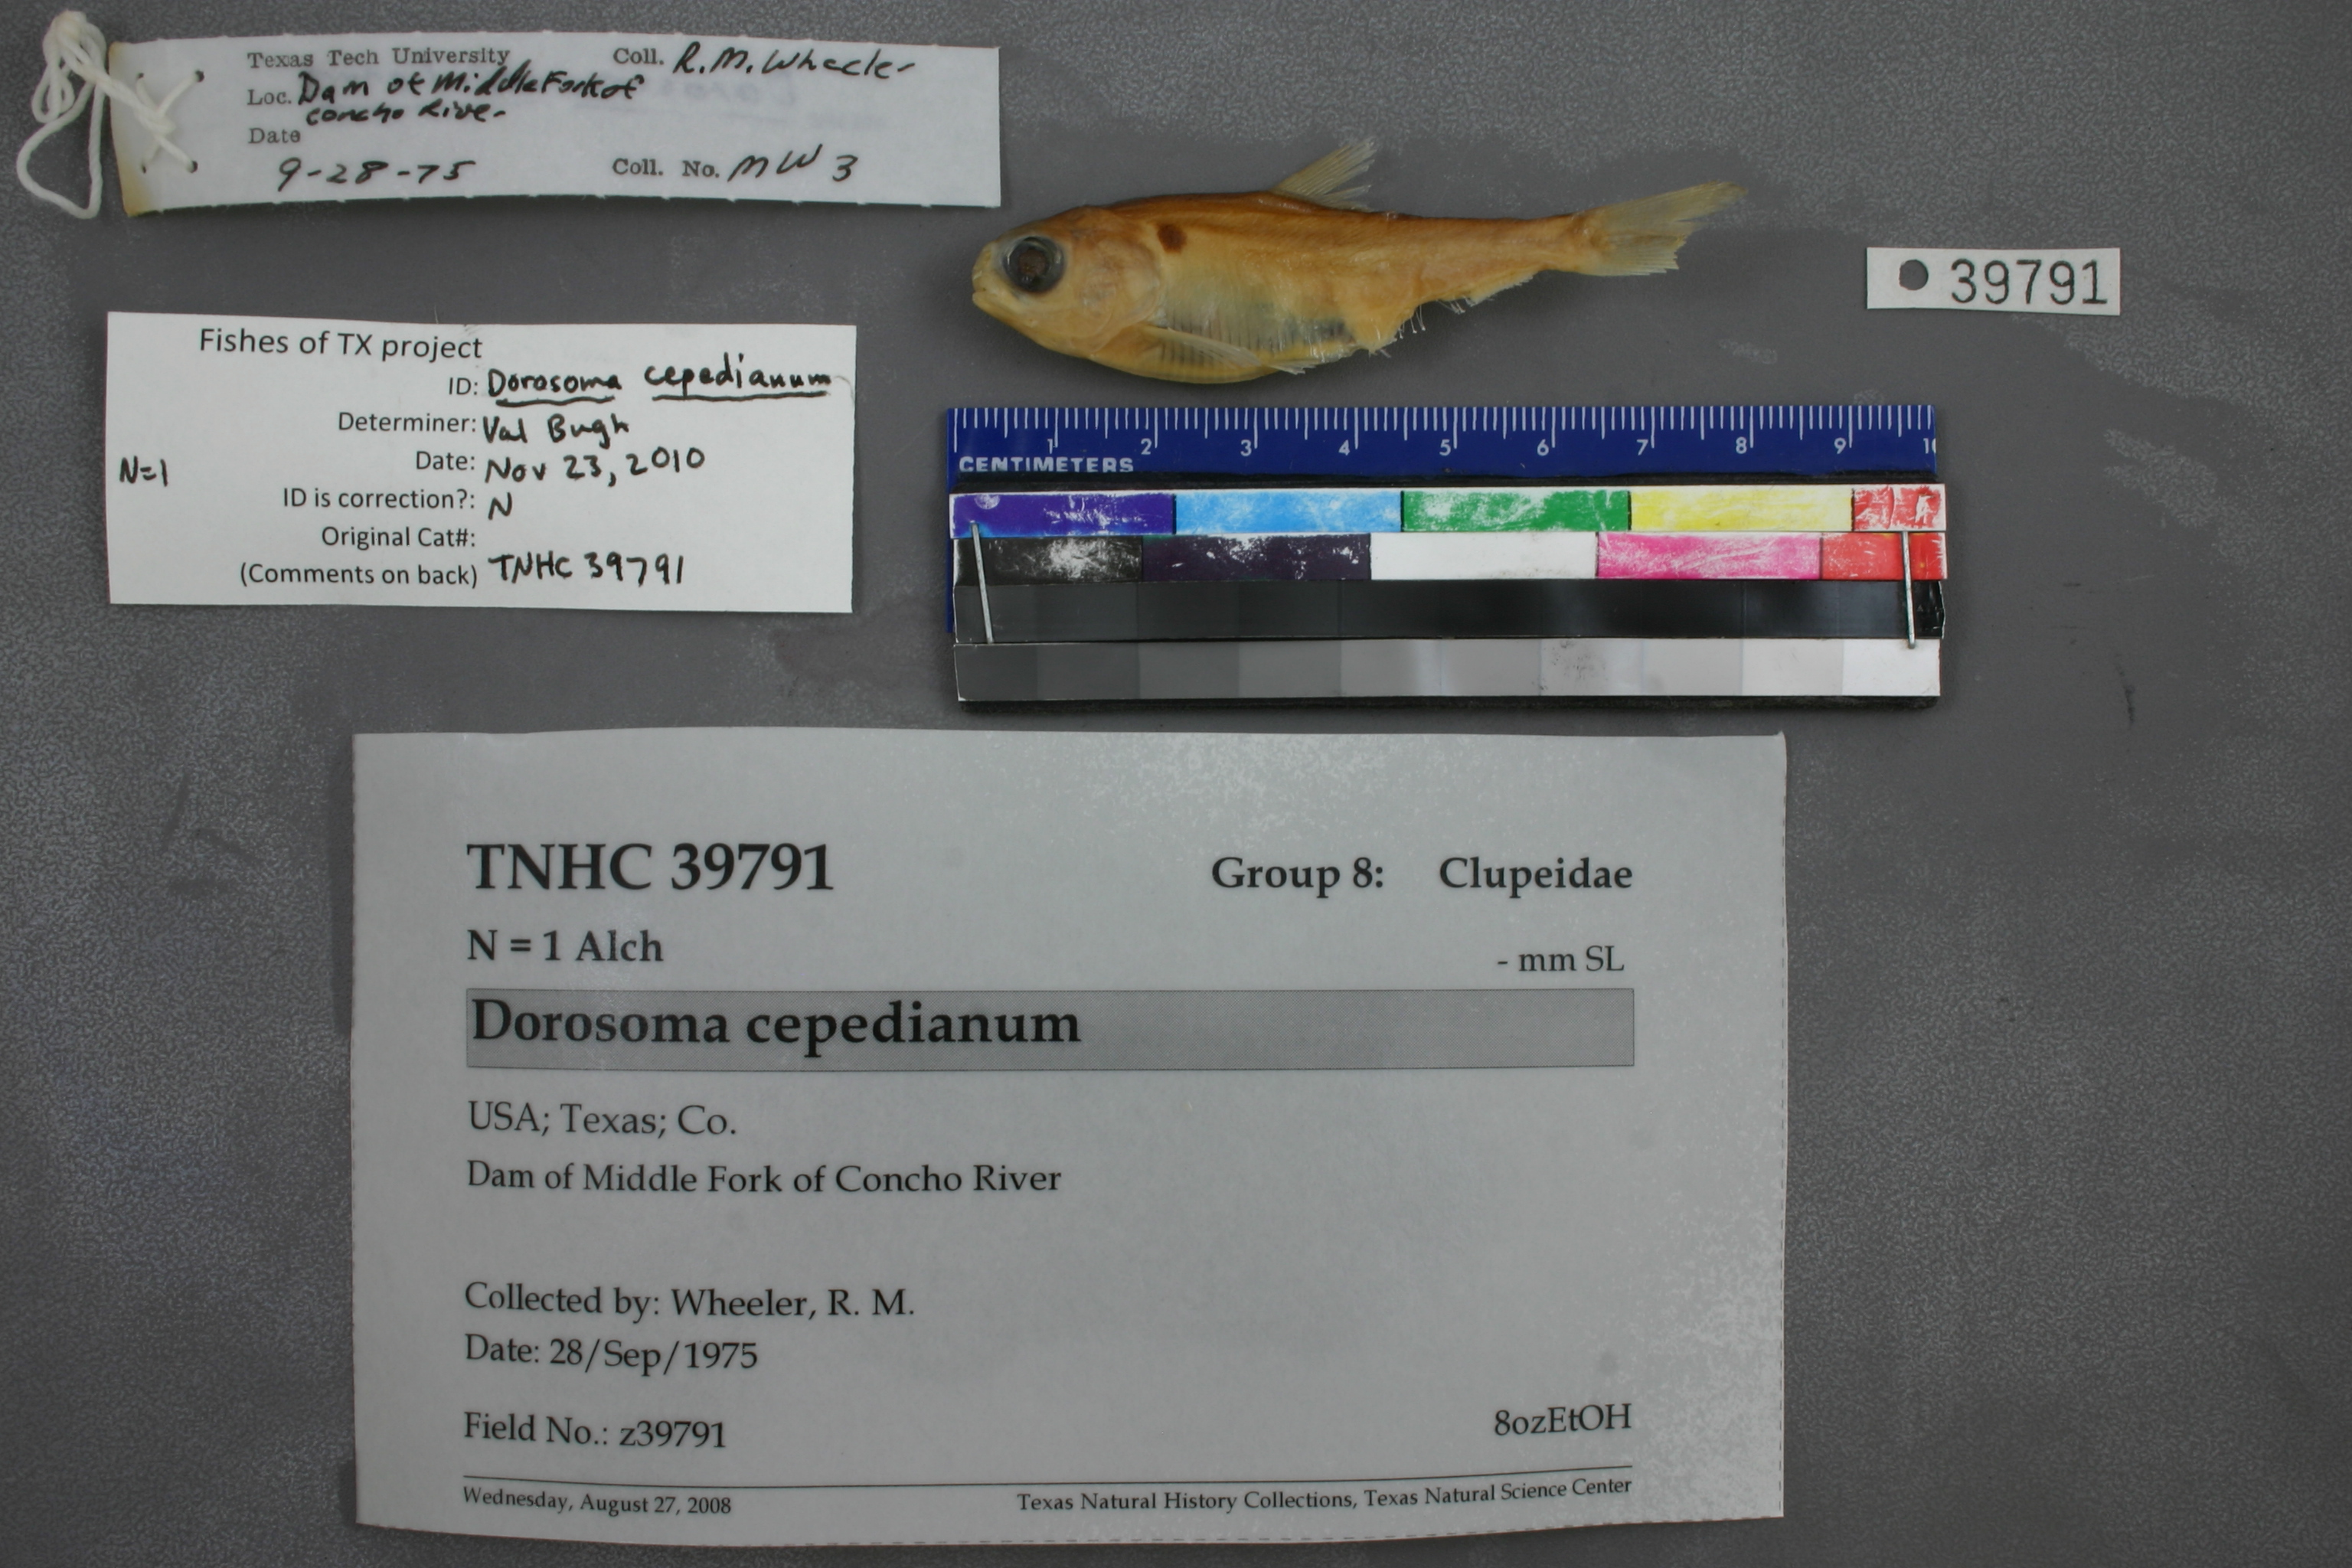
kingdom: Animalia
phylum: Chordata
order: Clupeiformes
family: Clupeidae
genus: Dorosoma
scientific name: Dorosoma cepedianum
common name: Gizzard shad
